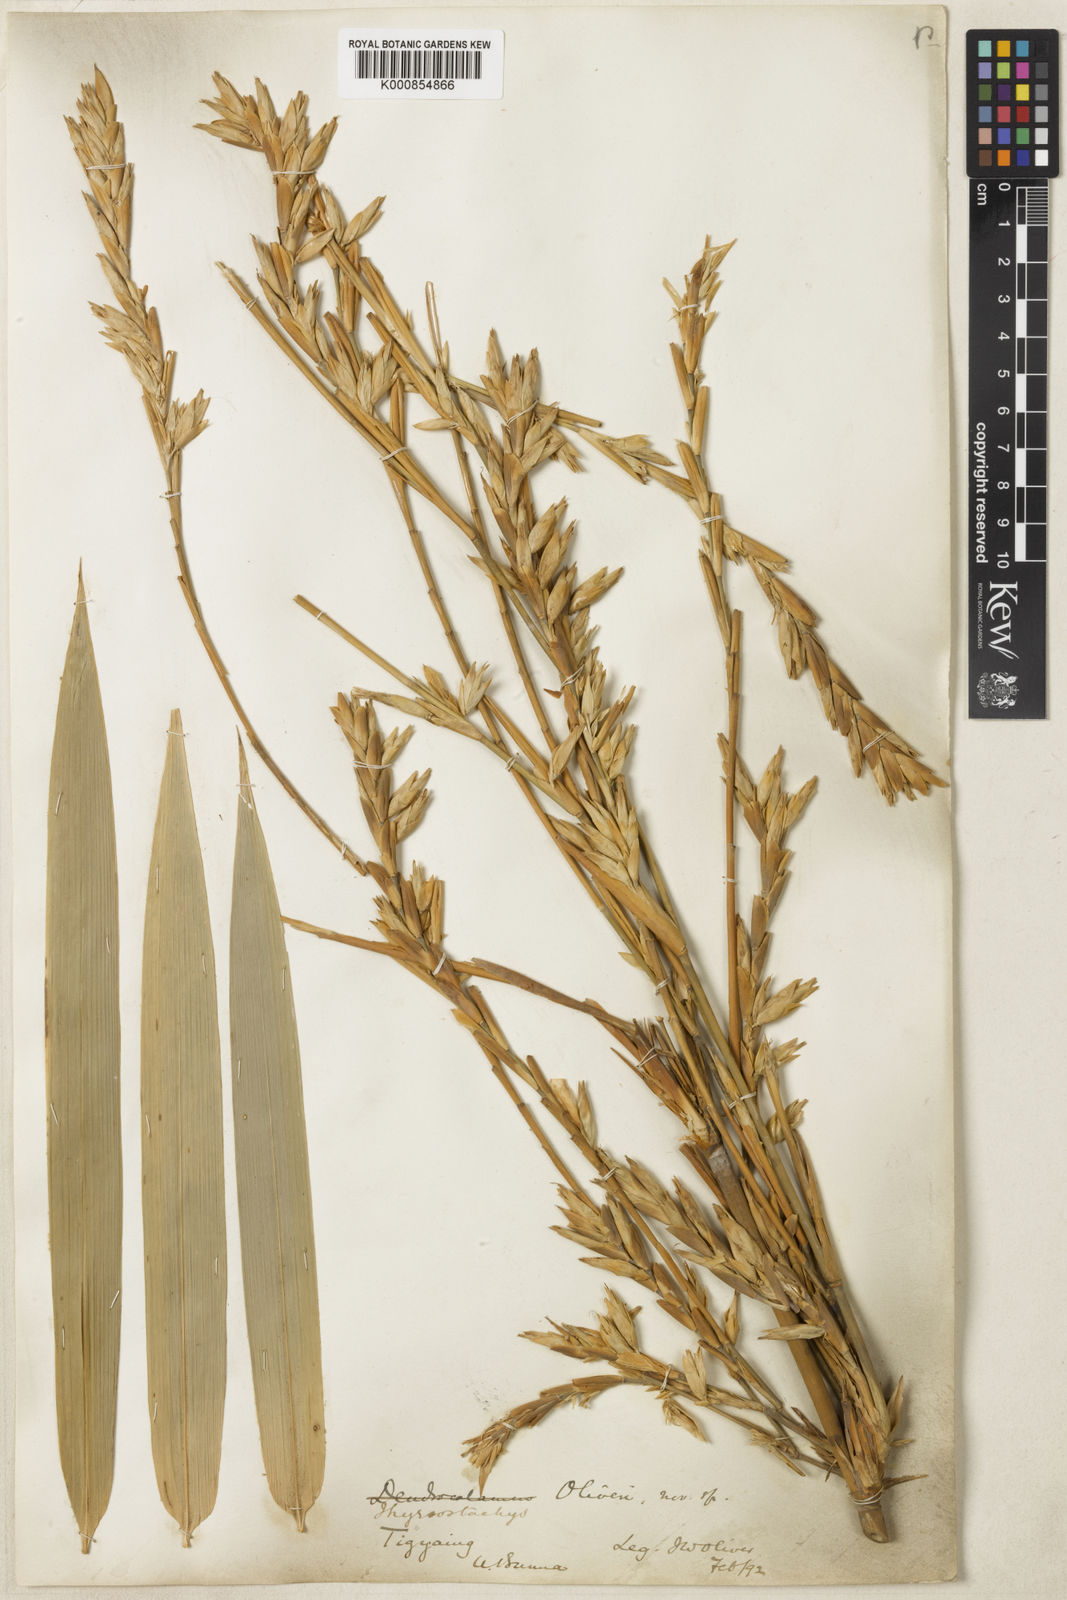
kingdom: Plantae
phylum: Tracheophyta
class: Liliopsida
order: Poales
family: Poaceae
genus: Thyrsostachys
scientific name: Thyrsostachys oliveri
